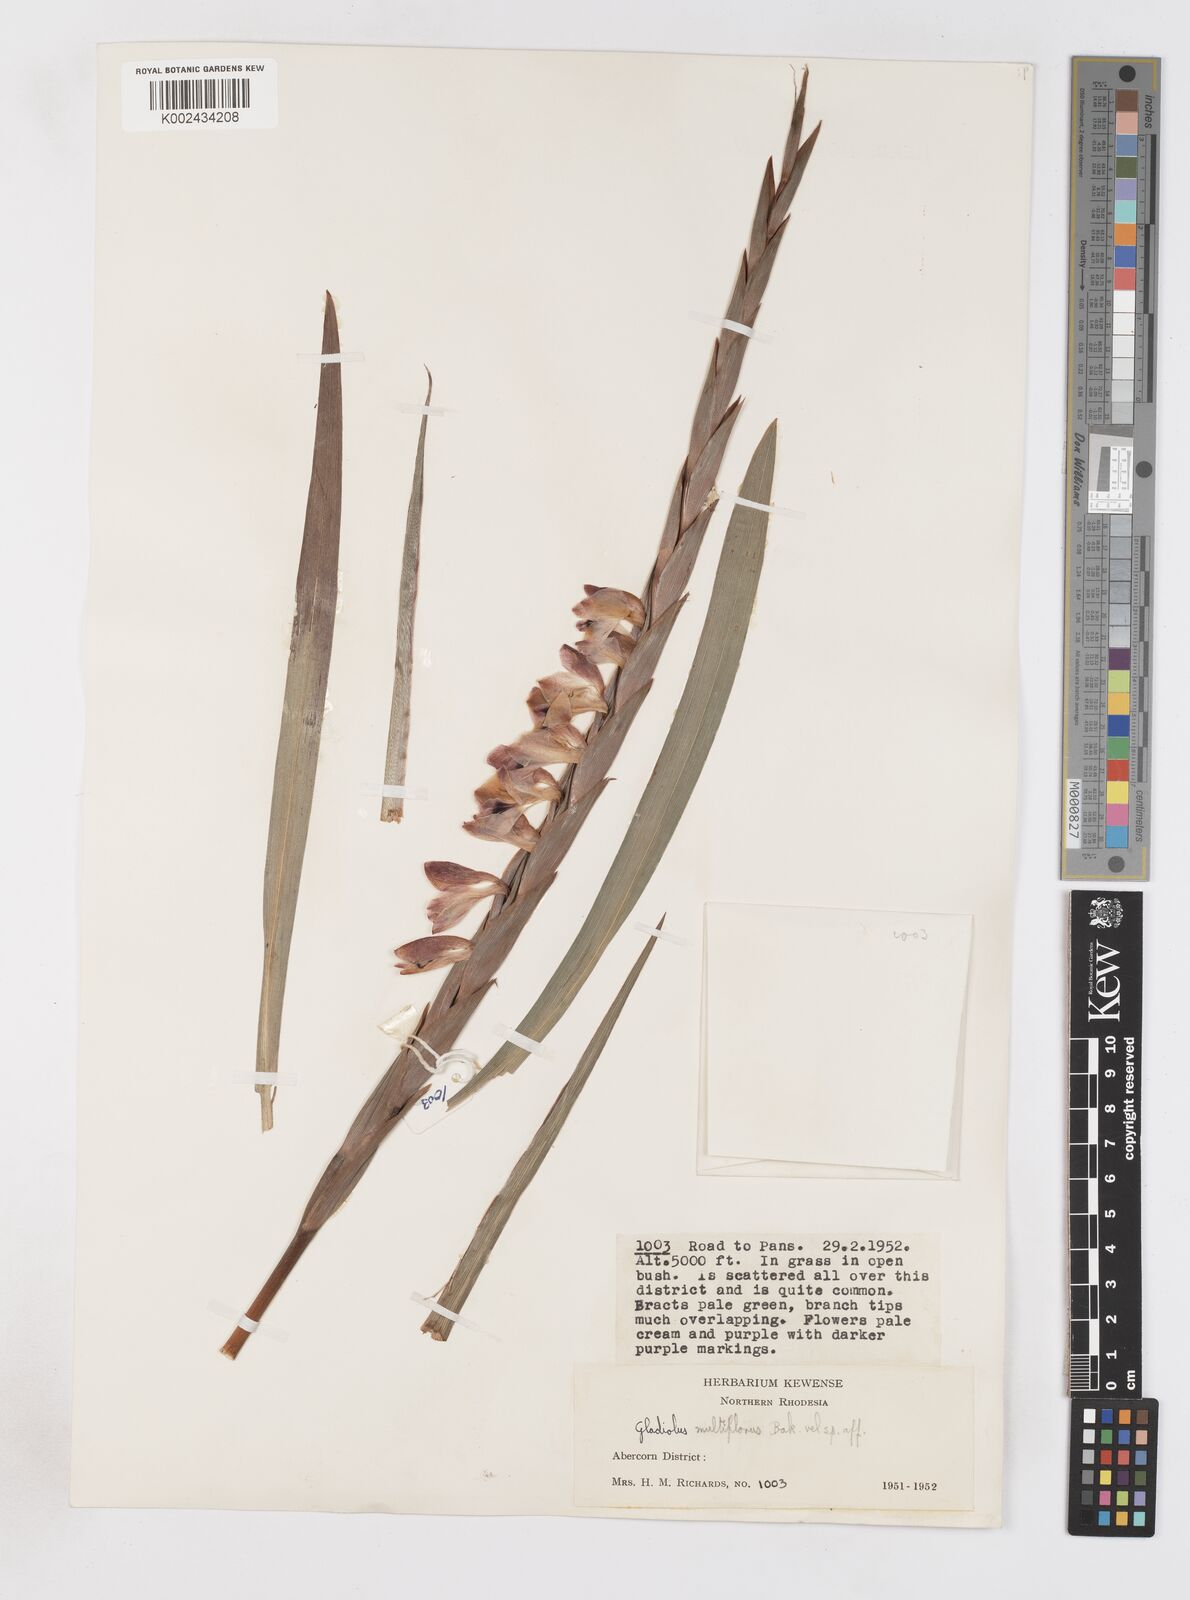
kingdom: Plantae
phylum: Tracheophyta
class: Liliopsida
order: Asparagales
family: Iridaceae
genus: Gladiolus
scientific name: Gladiolus gregarius
